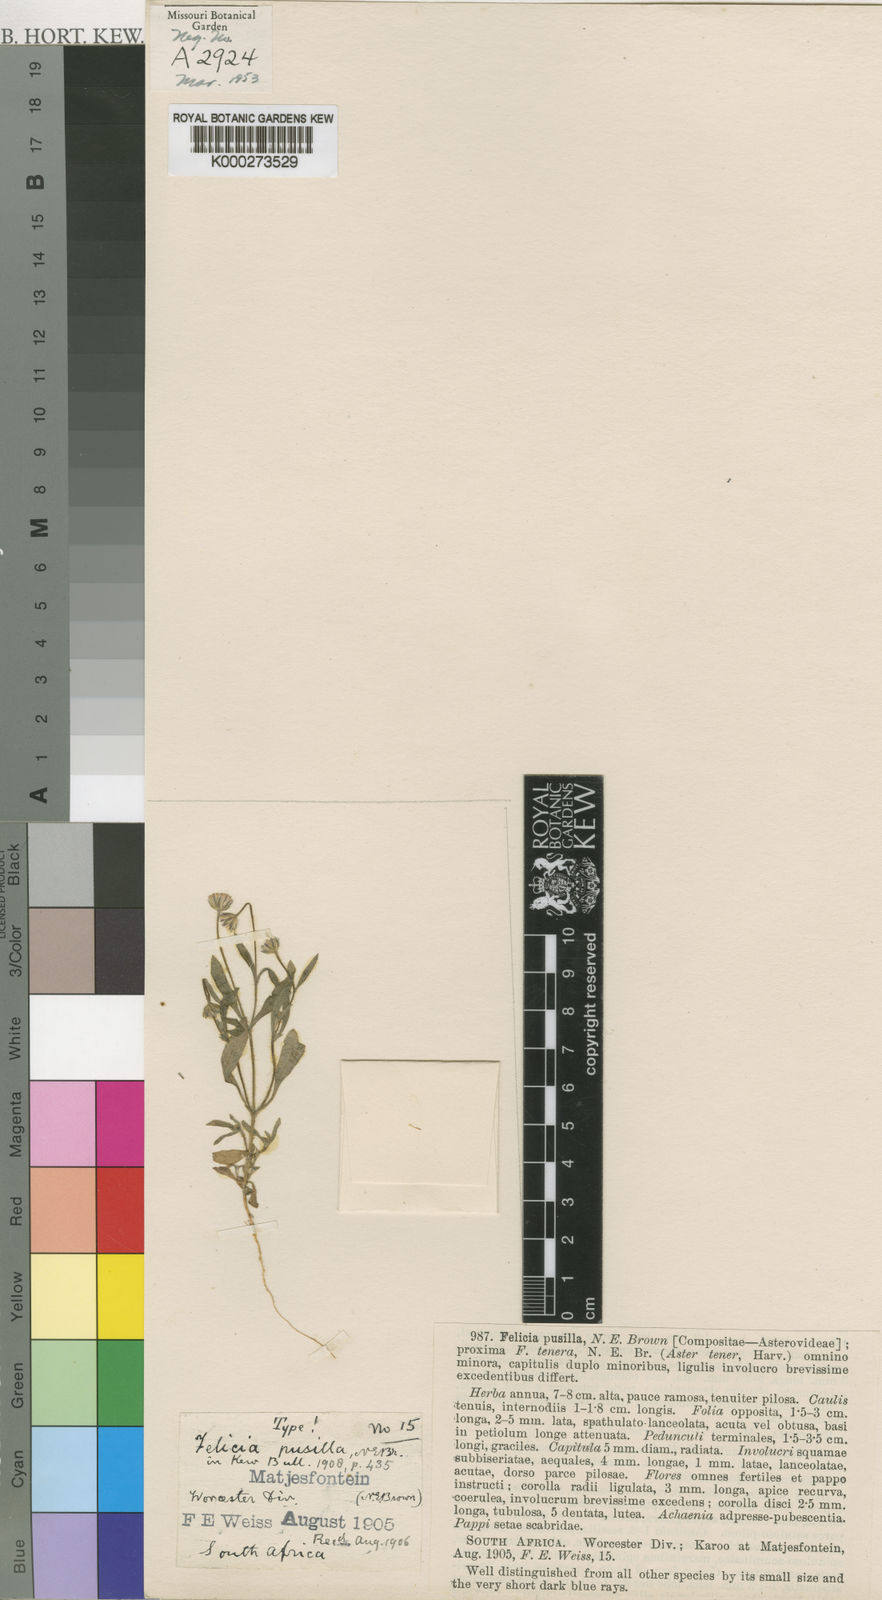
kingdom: Plantae
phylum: Tracheophyta
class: Magnoliopsida
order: Asterales
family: Asteraceae
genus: Felicia
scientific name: Felicia dubia
